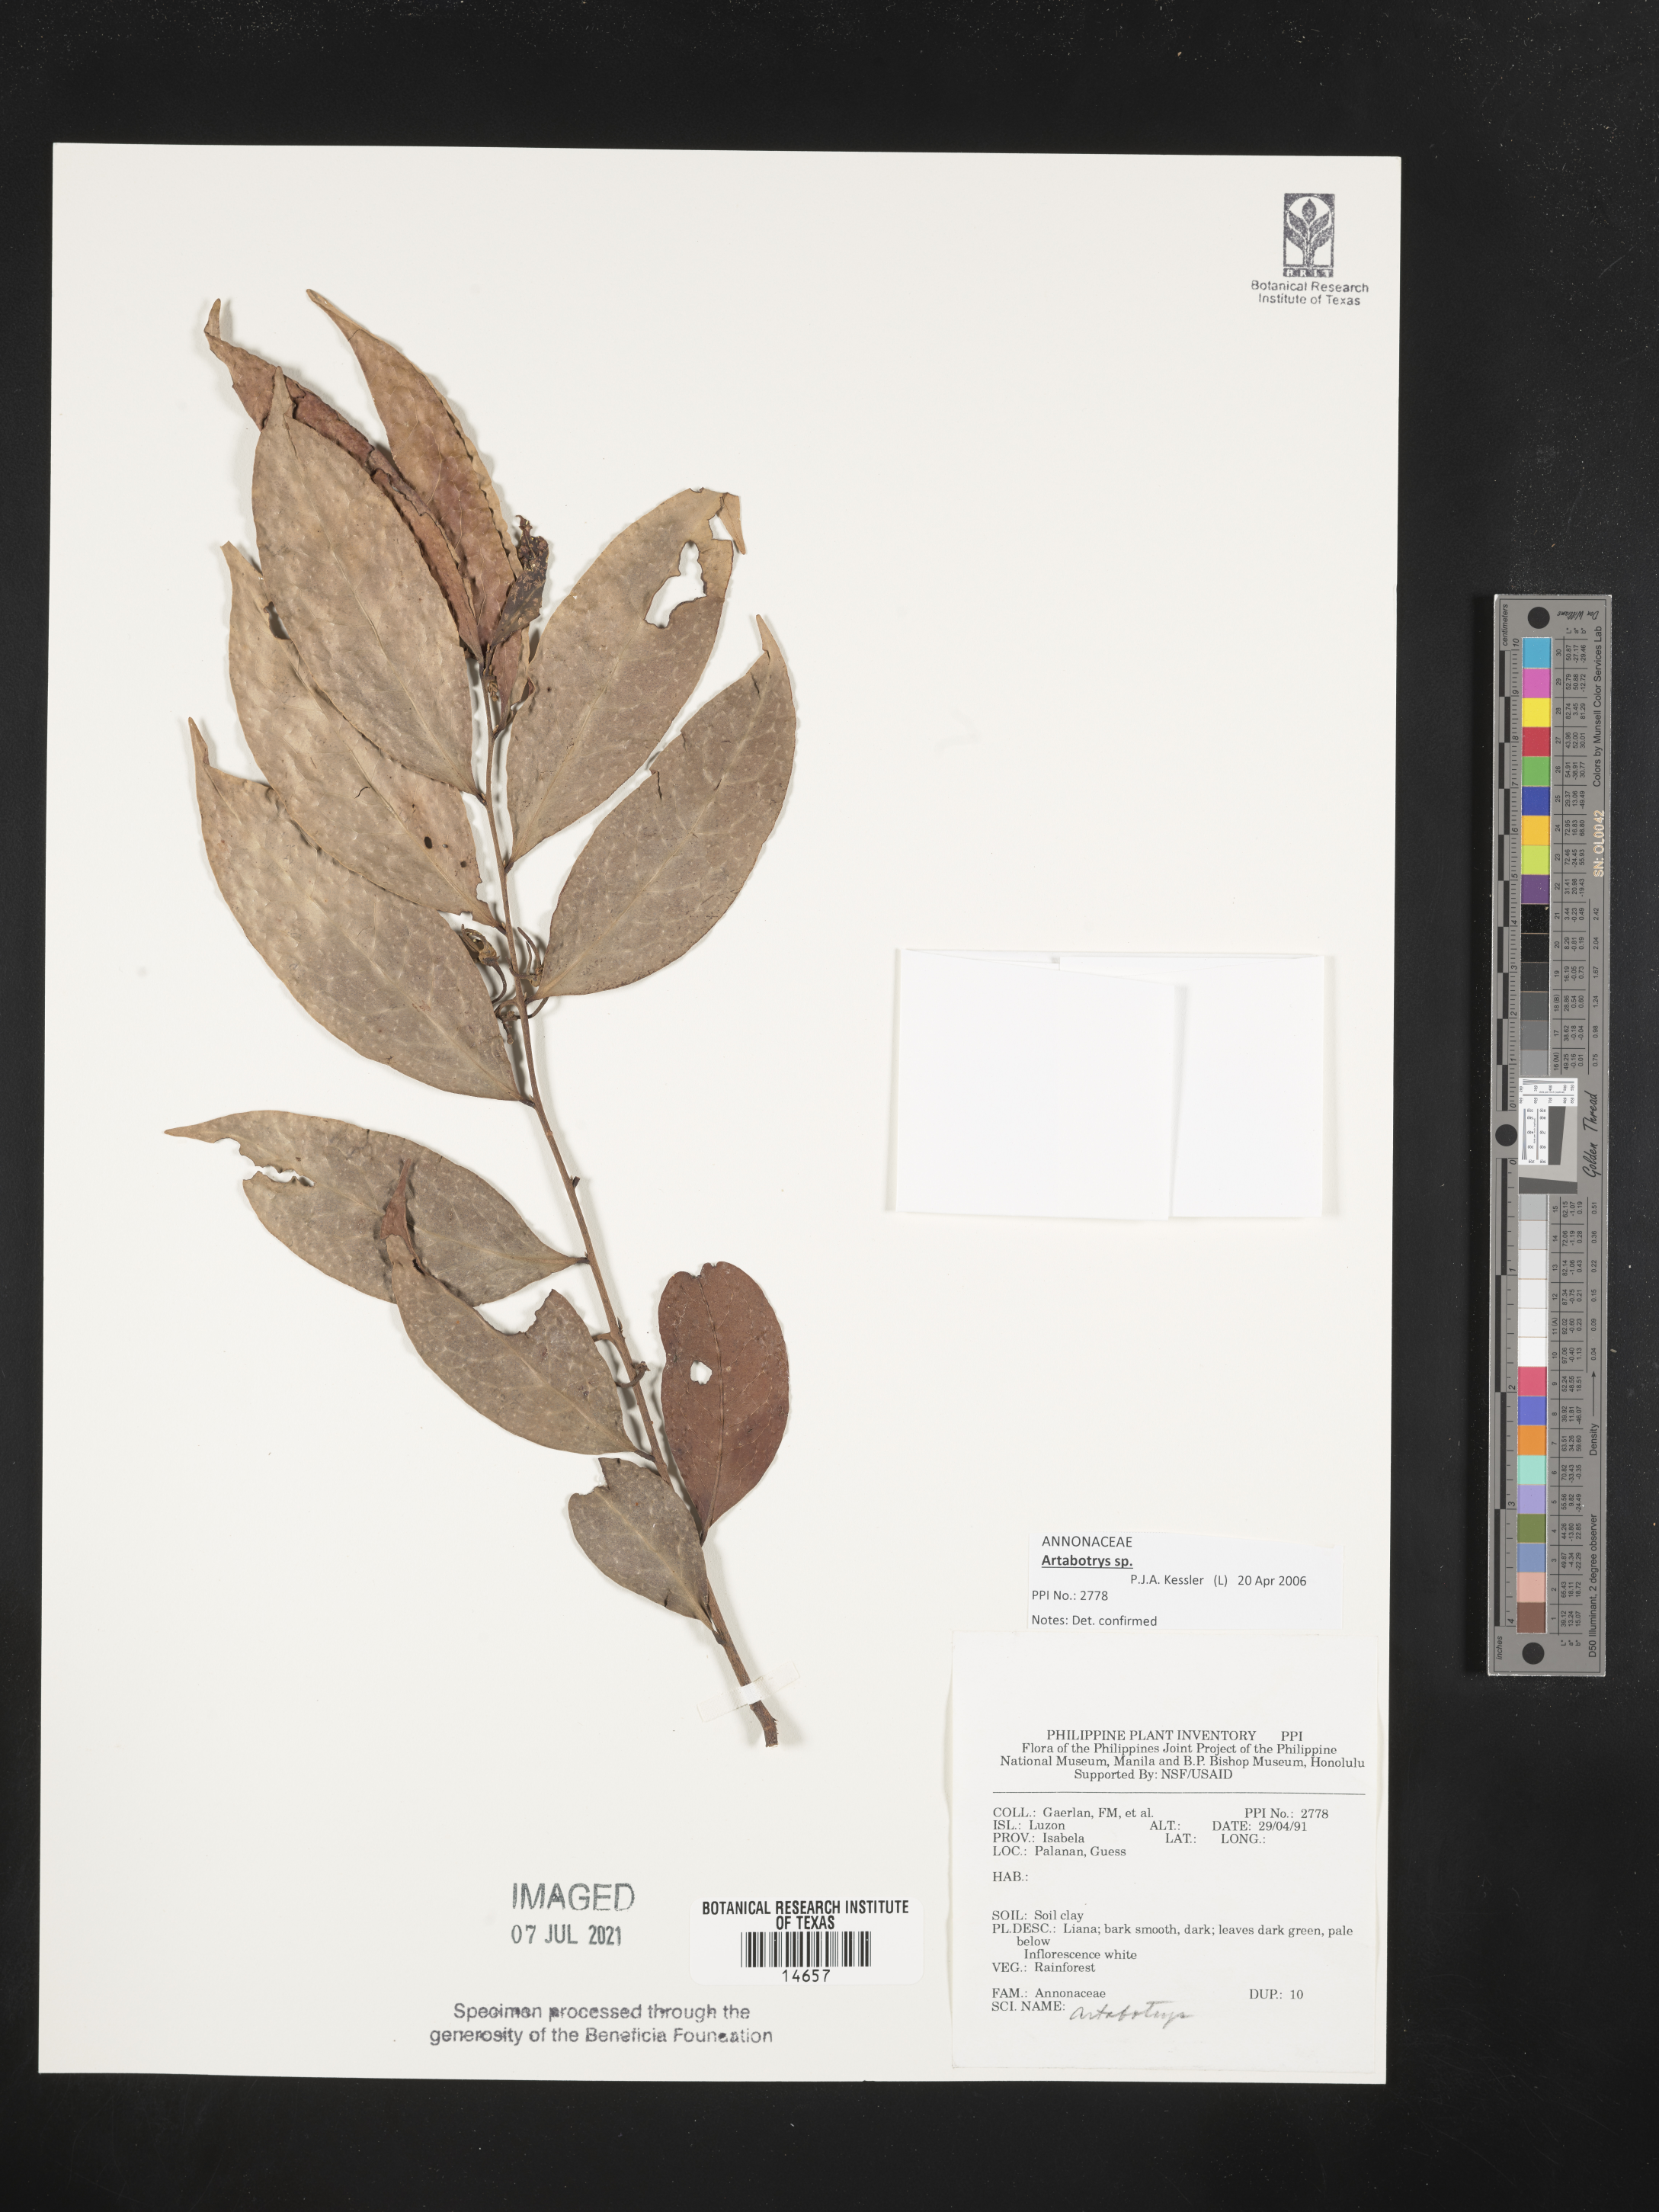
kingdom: Plantae
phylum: Tracheophyta
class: Magnoliopsida
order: Magnoliales
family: Annonaceae
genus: Artabotrys
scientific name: Artabotrys
